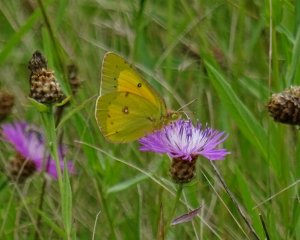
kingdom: Animalia
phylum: Arthropoda
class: Insecta
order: Lepidoptera
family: Pieridae
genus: Colias
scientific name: Colias eurytheme
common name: Orange Sulphur
